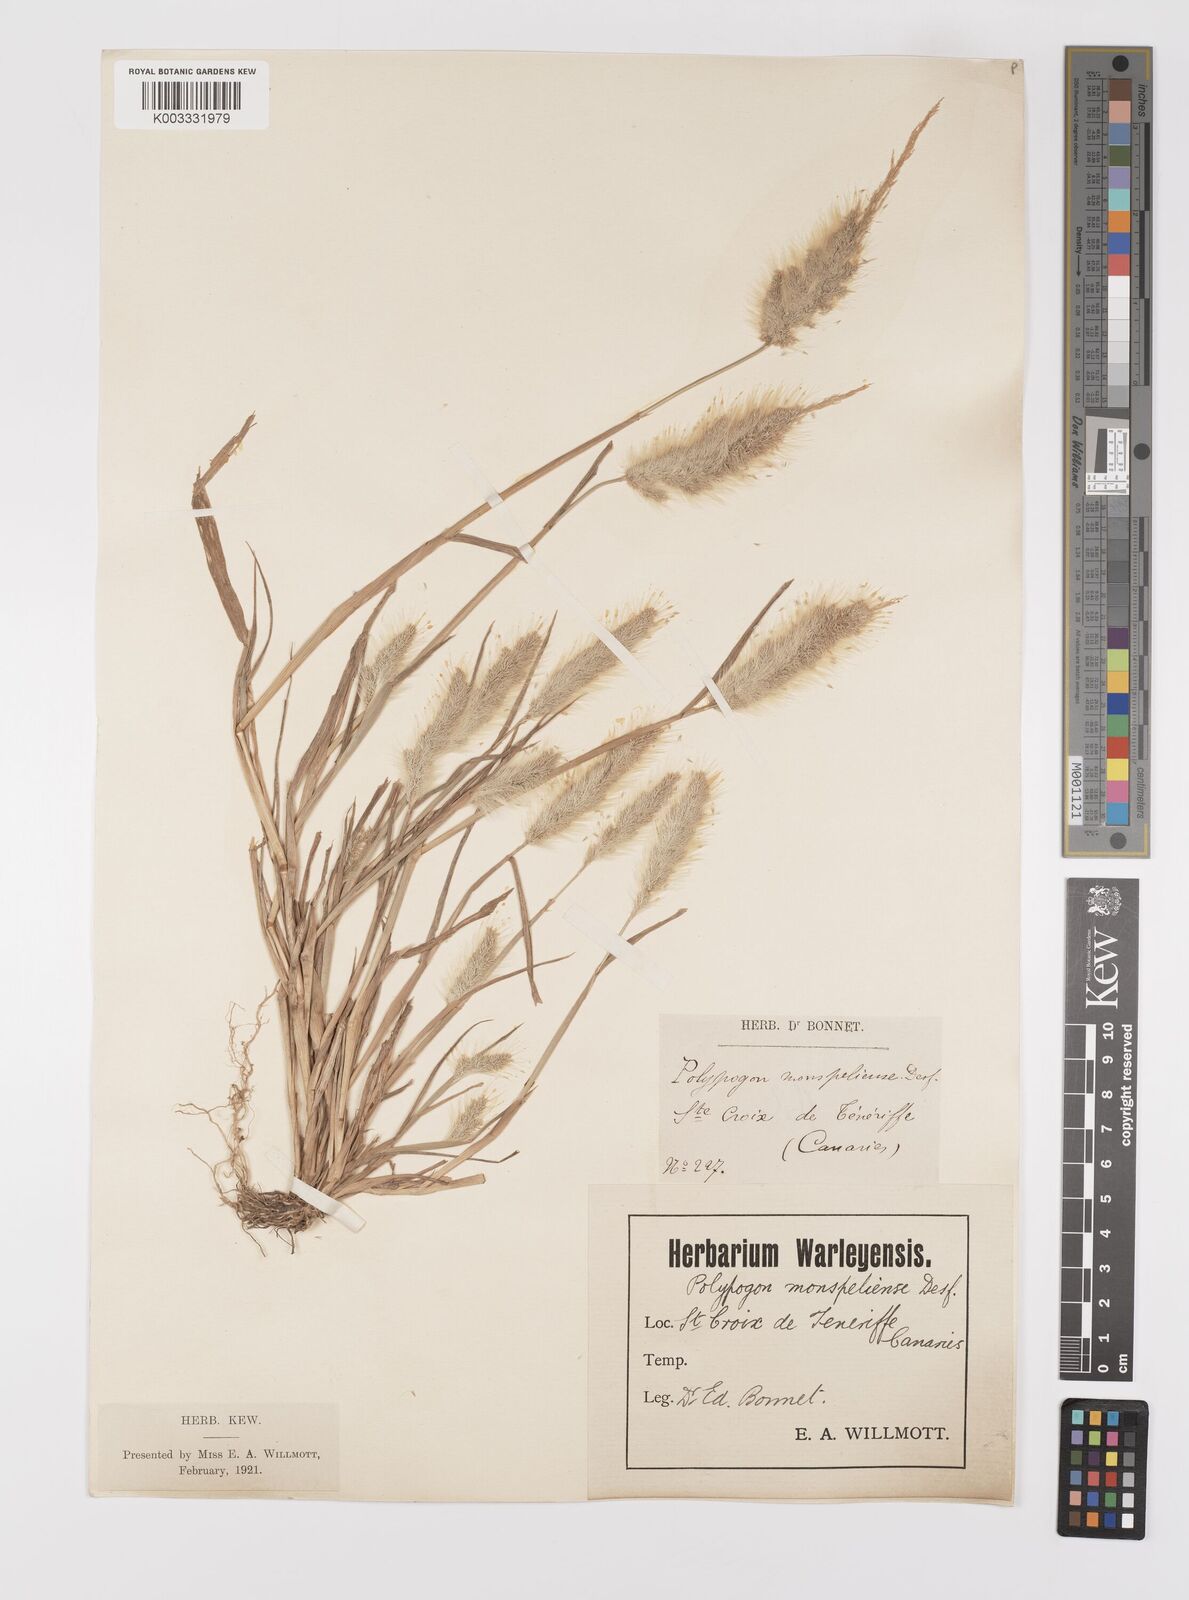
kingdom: Plantae
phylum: Tracheophyta
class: Liliopsida
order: Poales
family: Poaceae
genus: Polypogon
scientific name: Polypogon monspeliensis
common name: Annual rabbitsfoot grass
